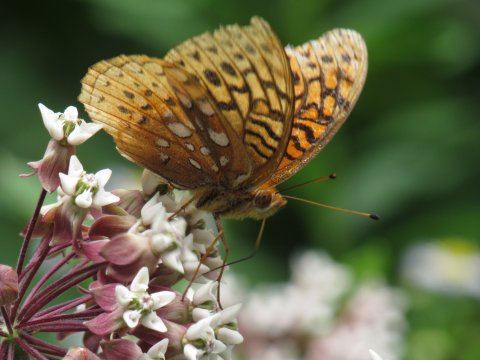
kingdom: Animalia
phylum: Arthropoda
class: Insecta
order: Lepidoptera
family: Nymphalidae
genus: Speyeria
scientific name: Speyeria cybele
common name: Great Spangled Fritillary
